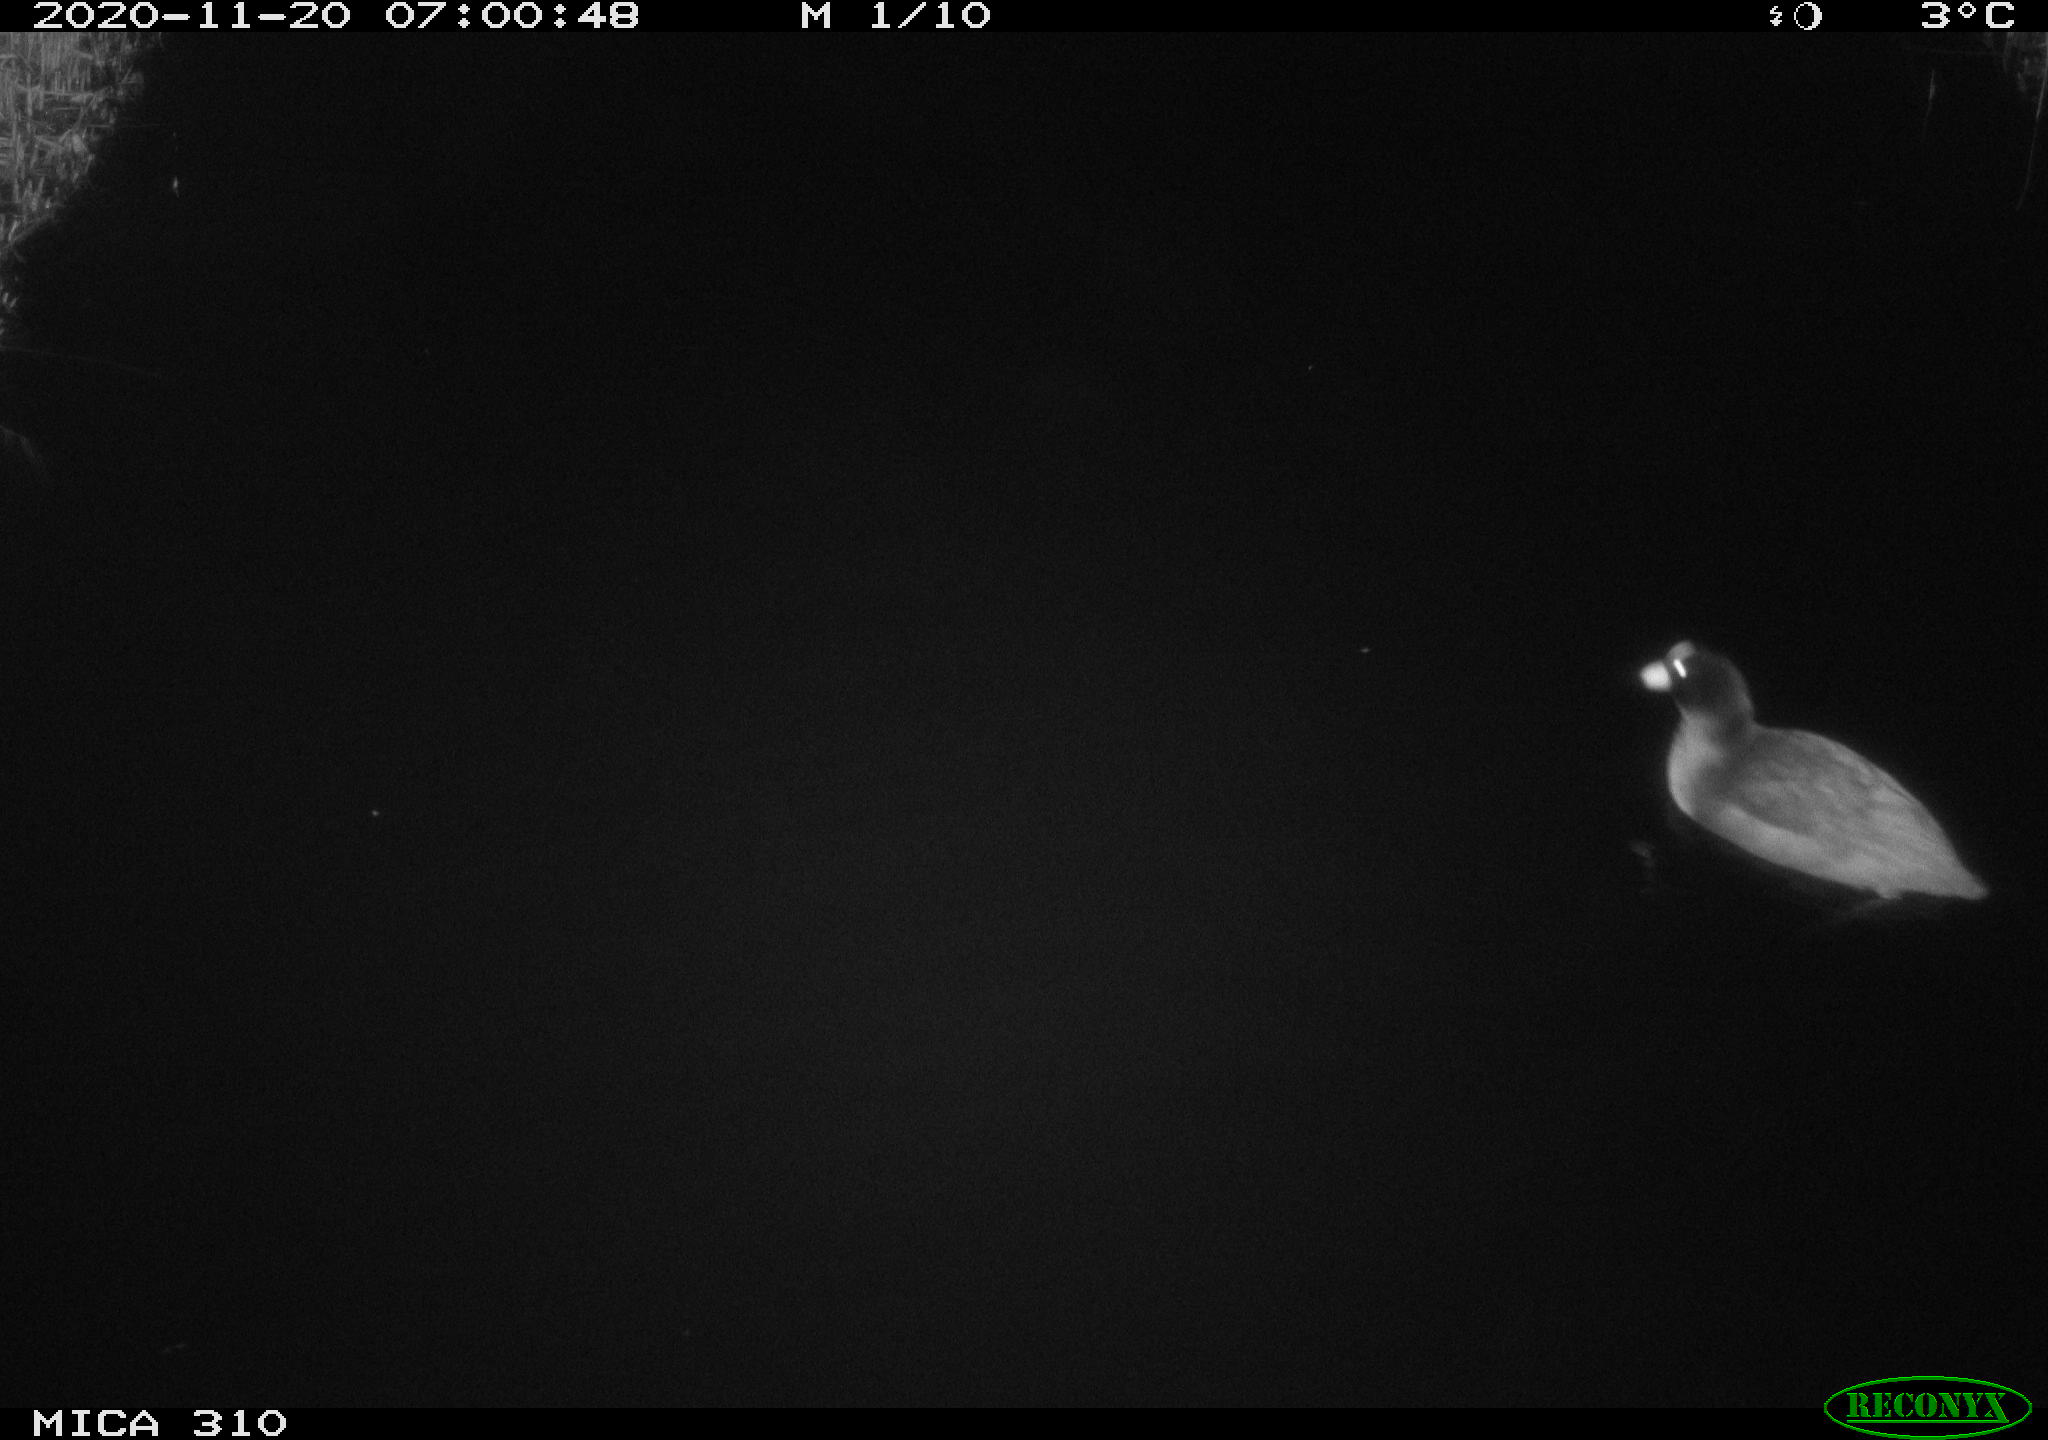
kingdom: Animalia
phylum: Chordata
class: Aves
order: Gruiformes
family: Rallidae
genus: Fulica
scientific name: Fulica atra
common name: Eurasian coot
